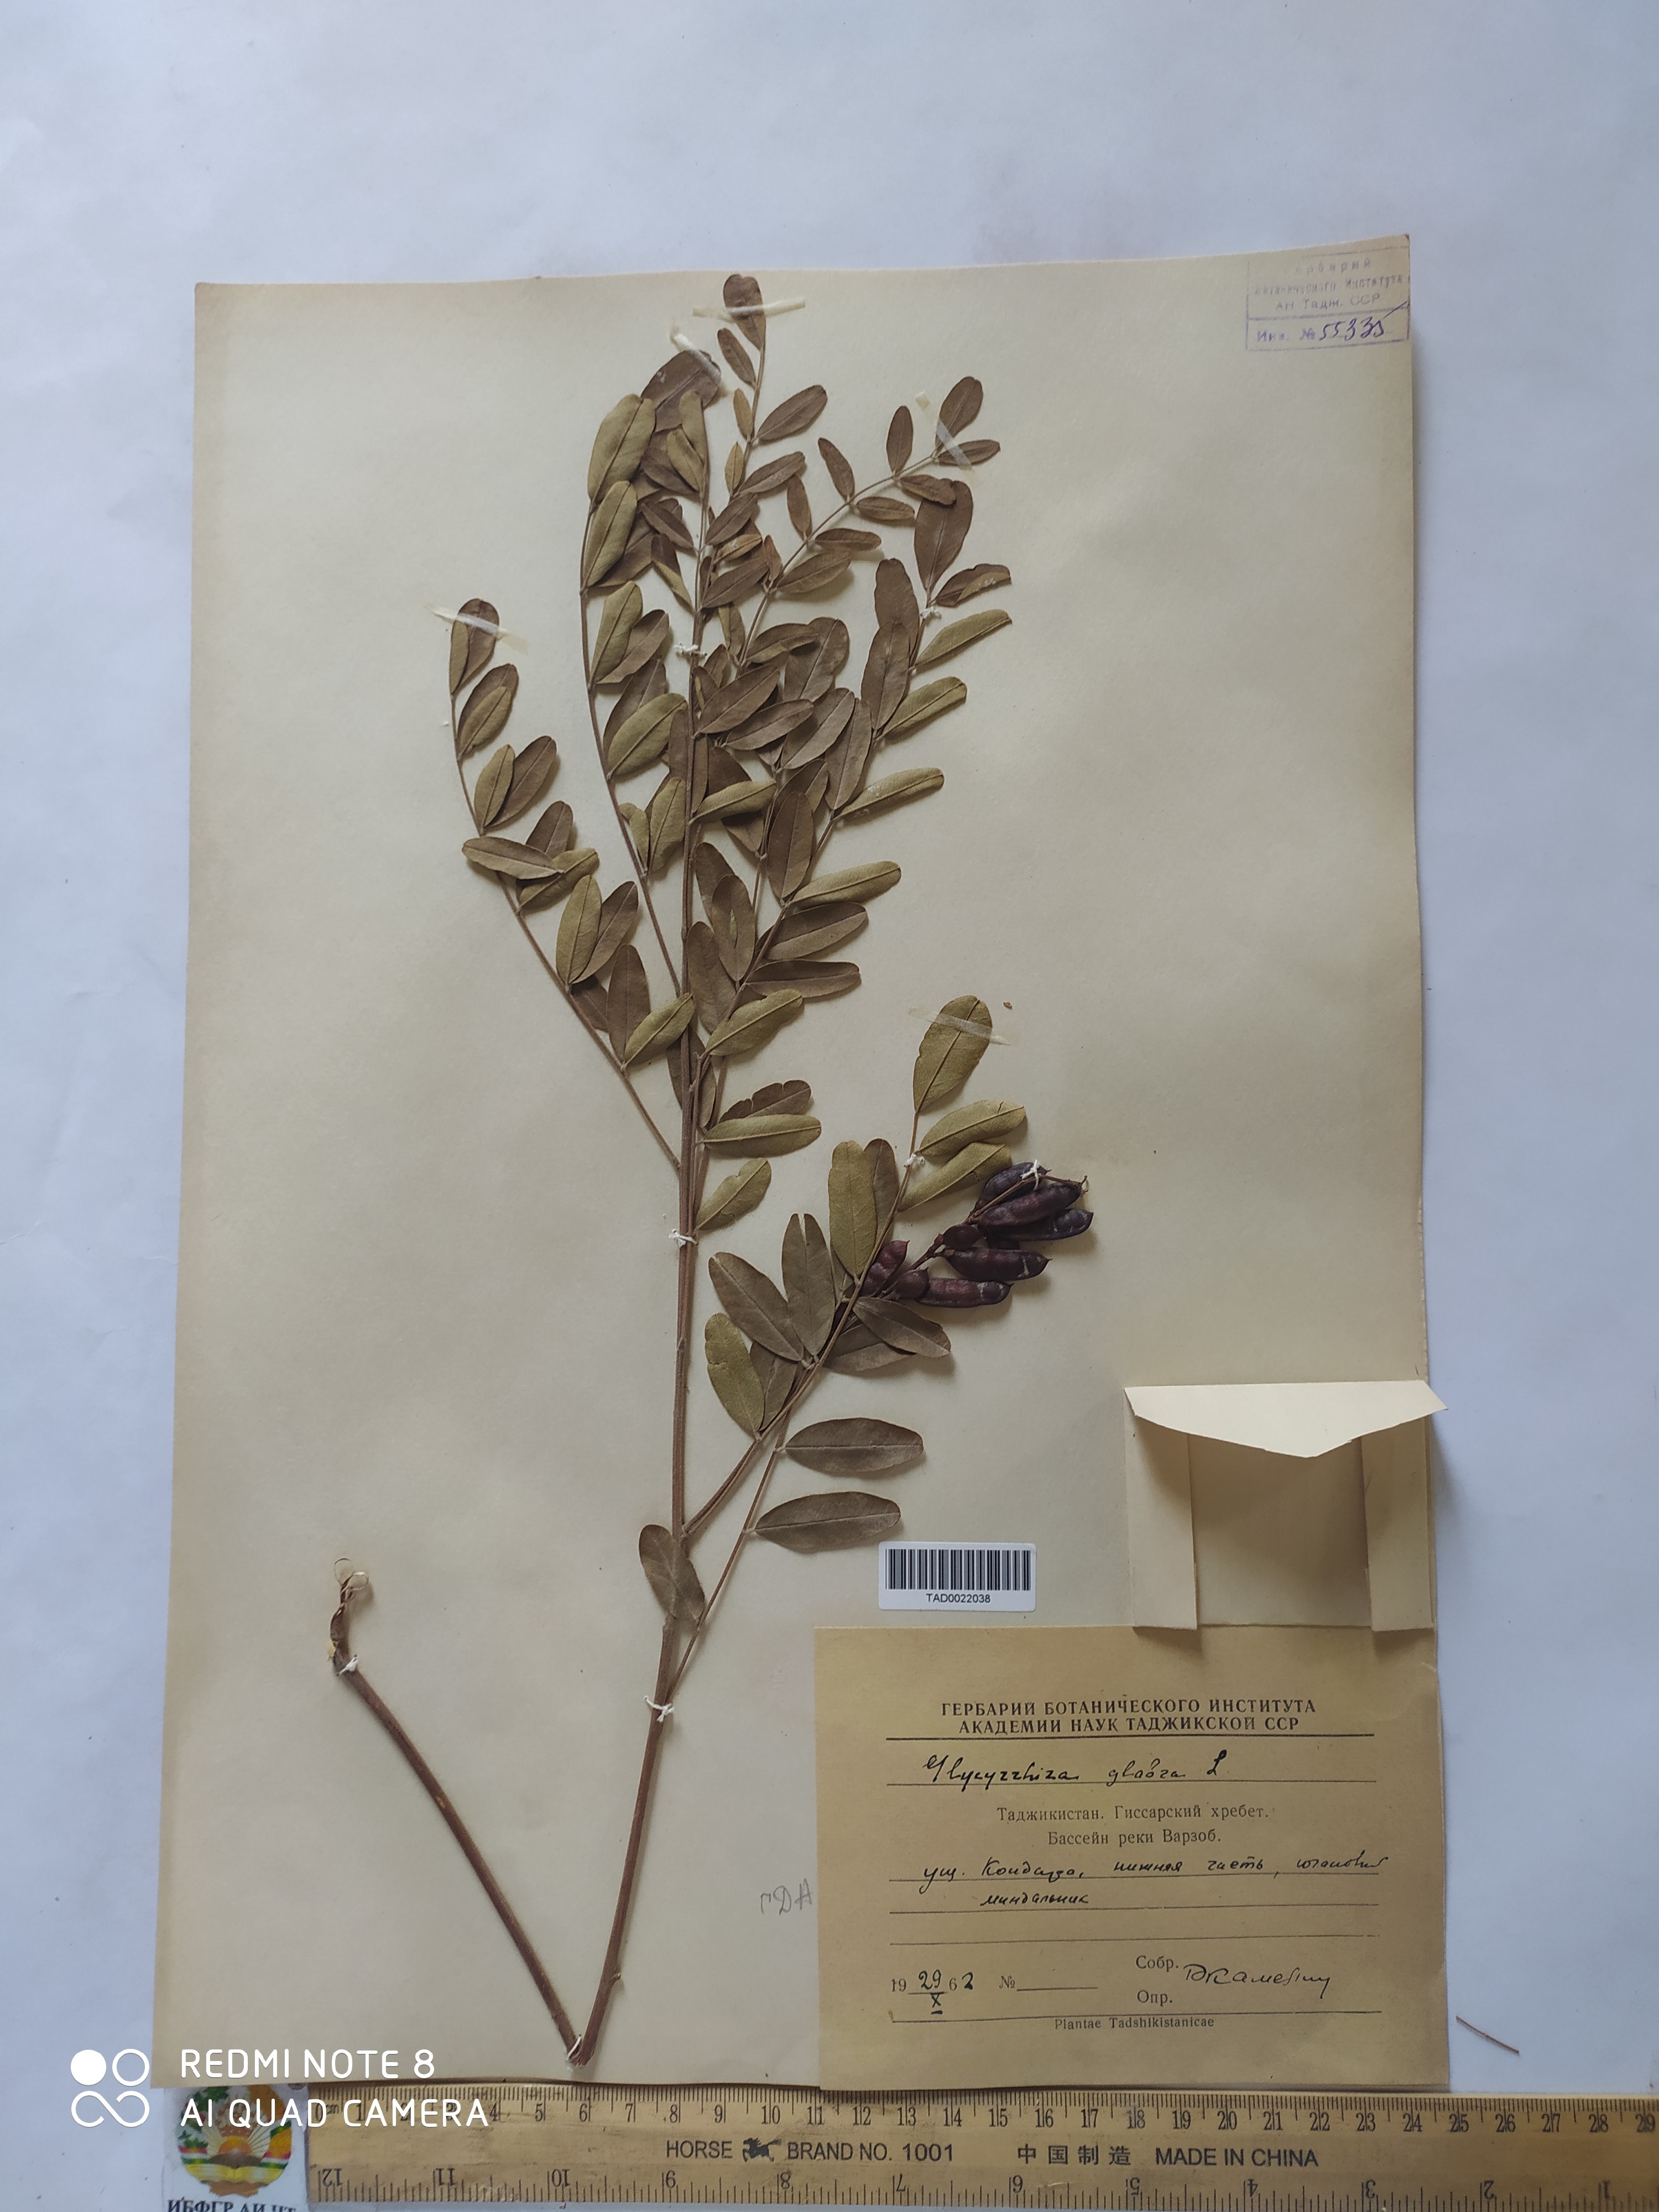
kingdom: Plantae
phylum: Tracheophyta
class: Magnoliopsida
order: Fabales
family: Fabaceae
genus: Glycyrrhiza
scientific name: Glycyrrhiza glabra
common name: Liquorice
